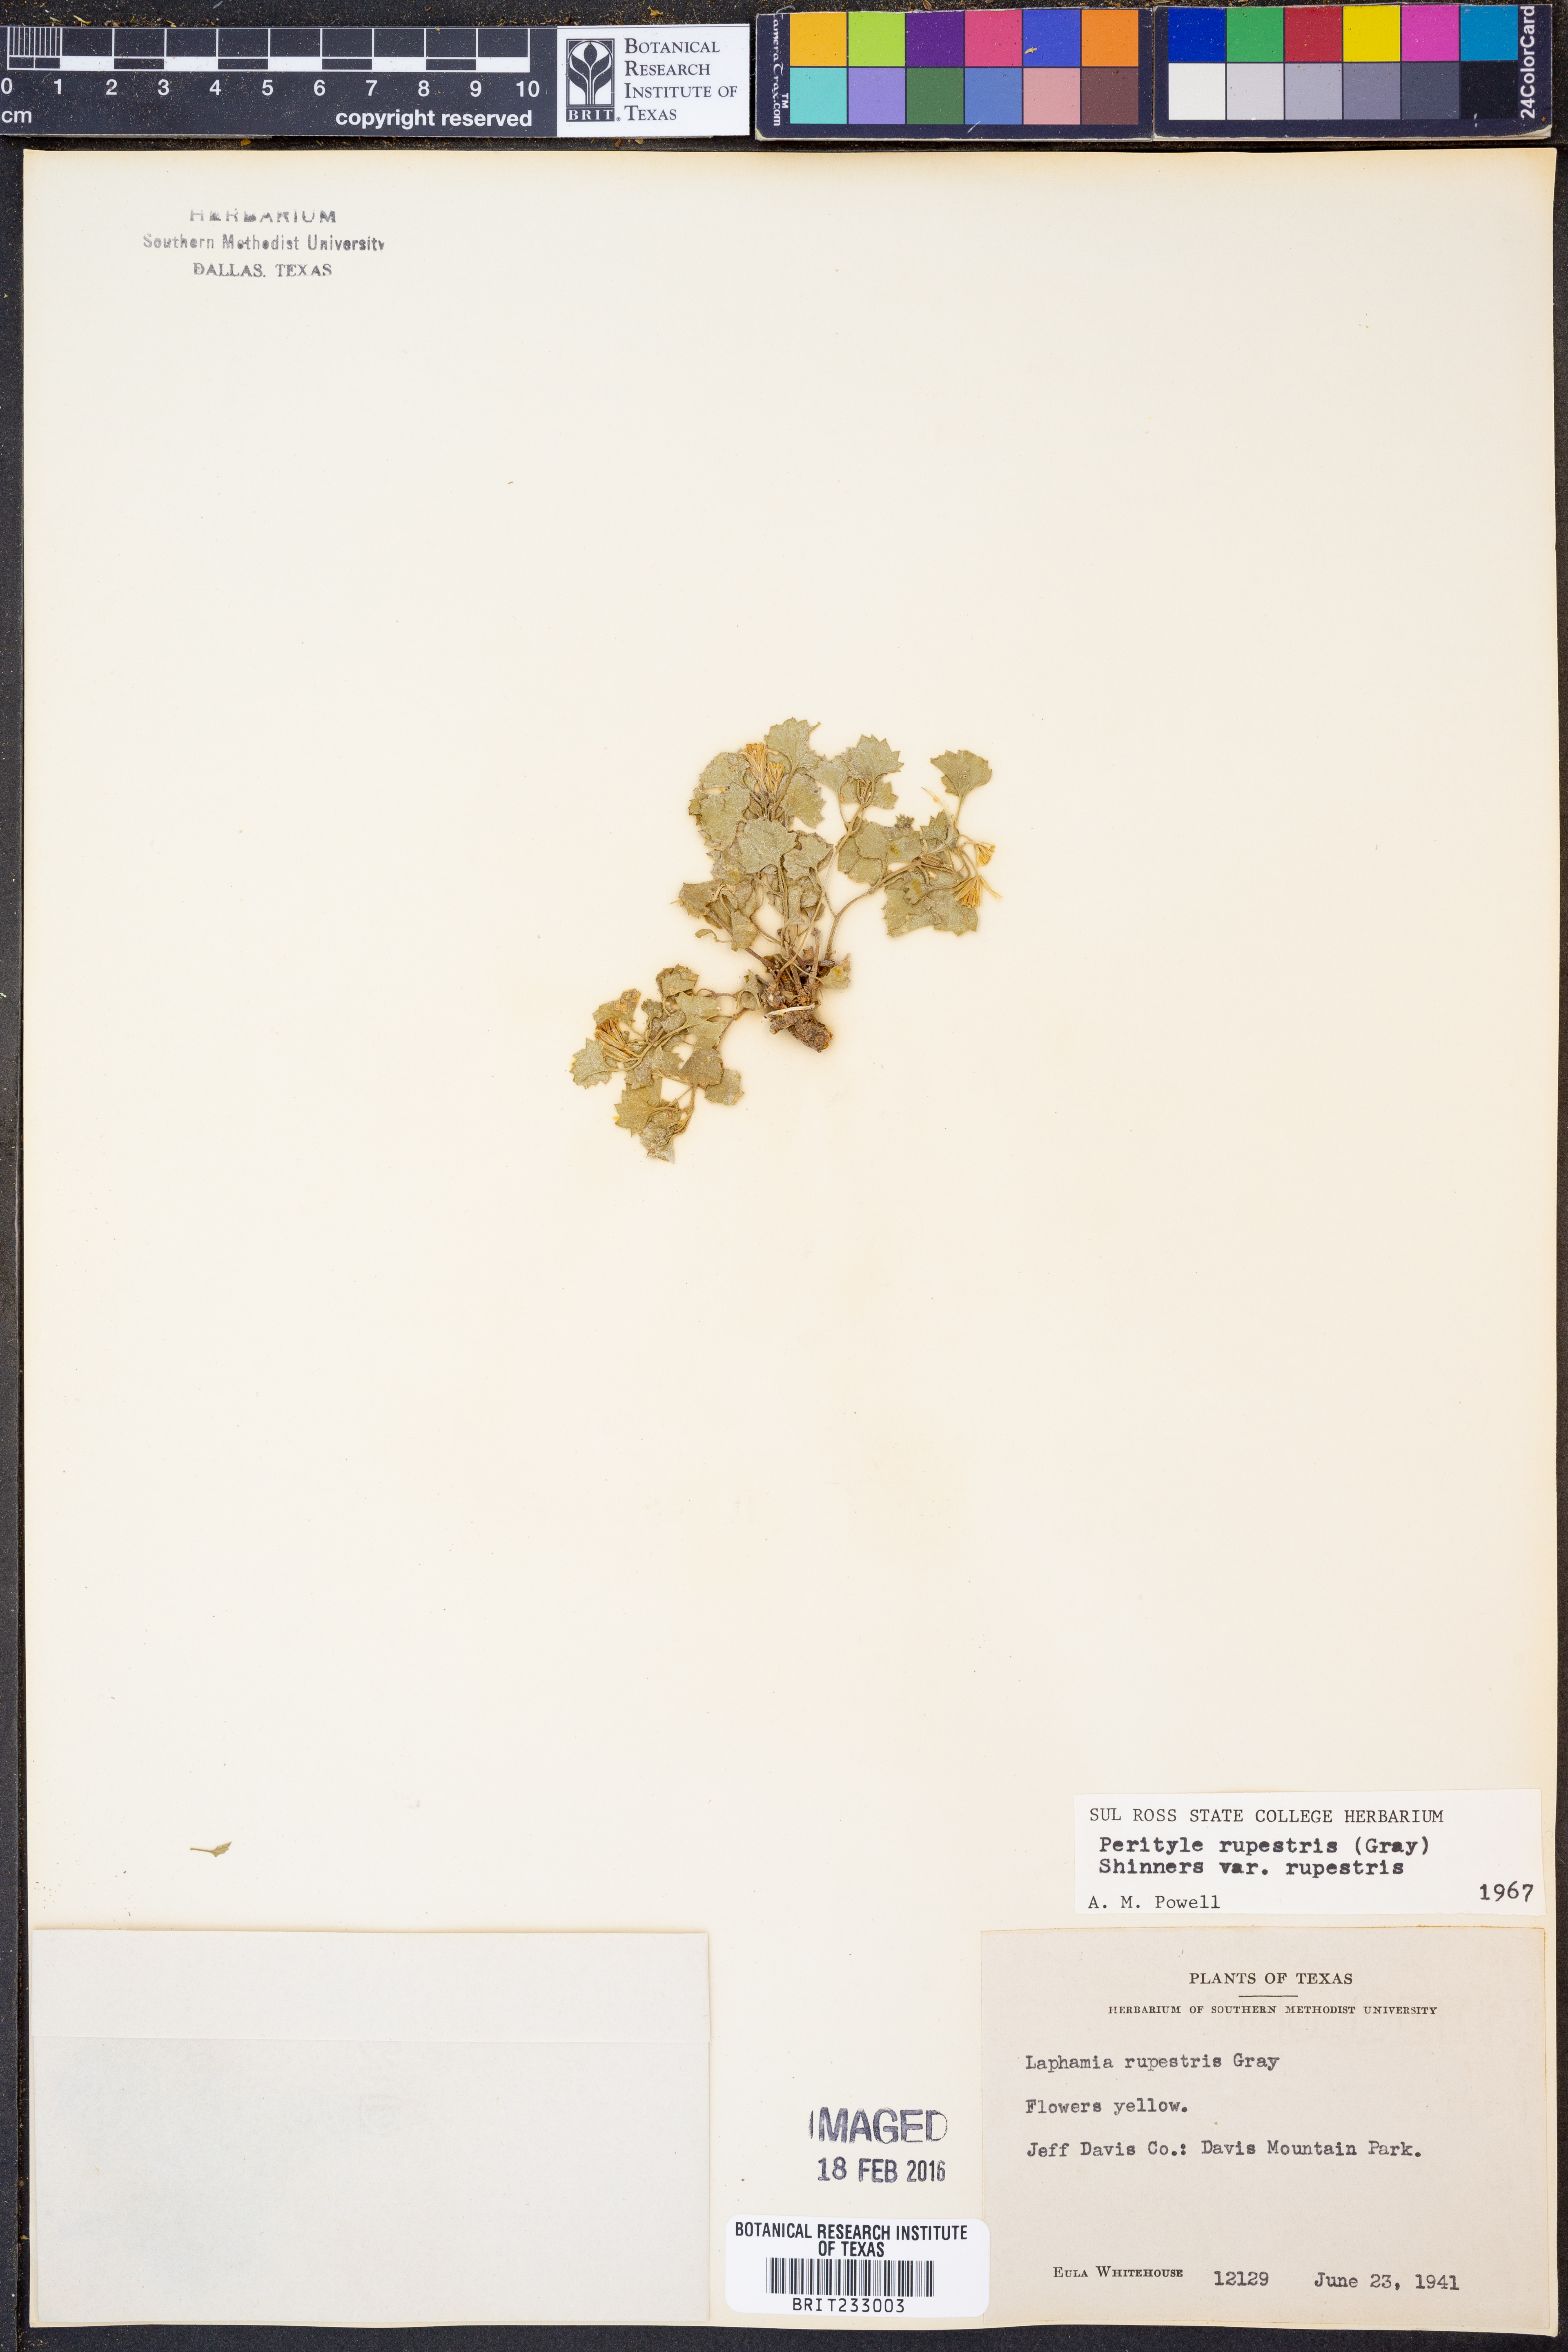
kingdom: Plantae
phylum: Tracheophyta
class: Magnoliopsida
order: Asterales
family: Asteraceae
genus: Laphamia
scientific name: Laphamia rupestris
